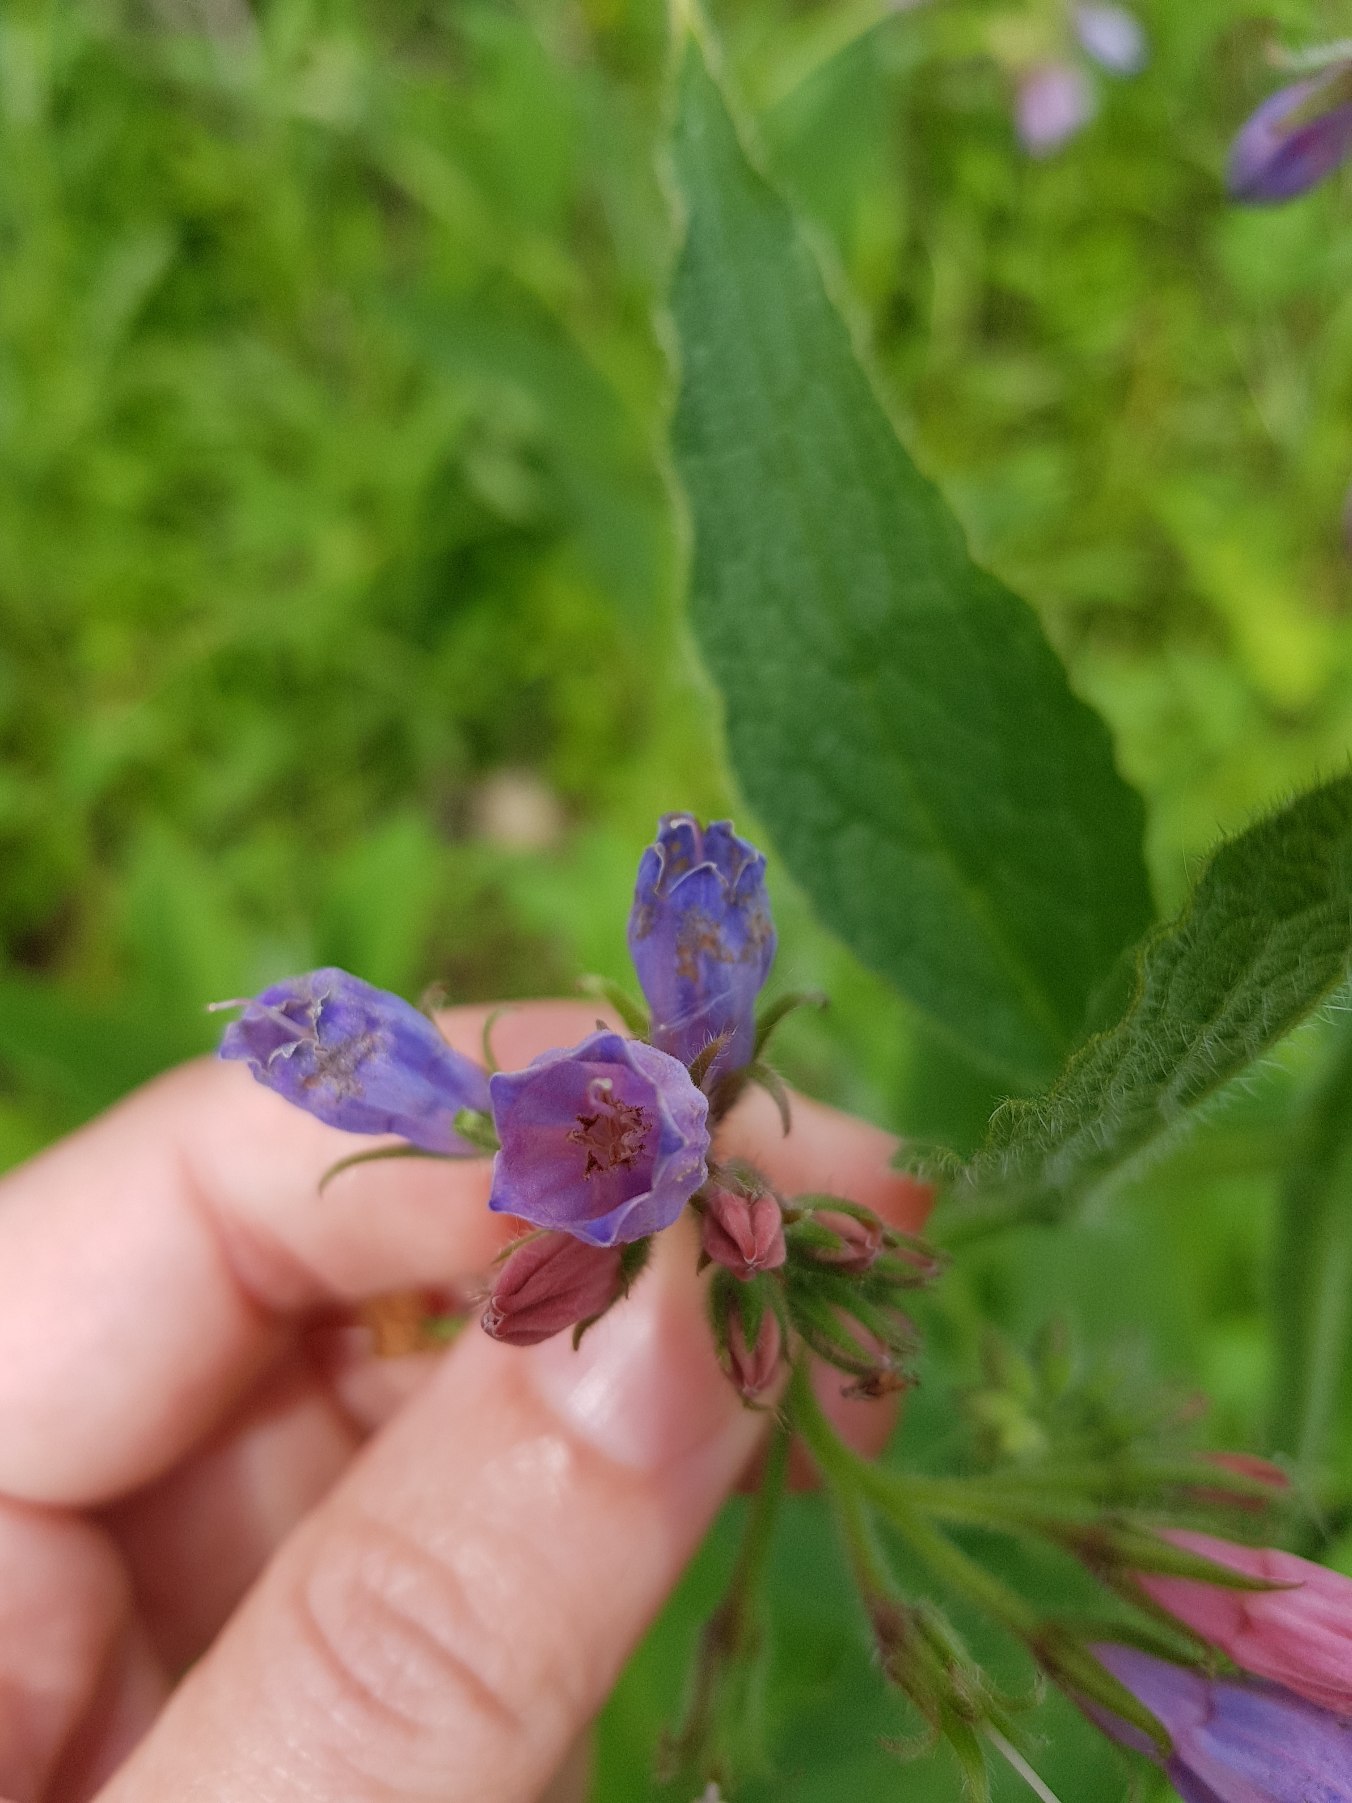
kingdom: Plantae
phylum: Tracheophyta
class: Magnoliopsida
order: Boraginales
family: Boraginaceae
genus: Symphytum
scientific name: Symphytum uplandicum
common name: Foder-kulsukker
